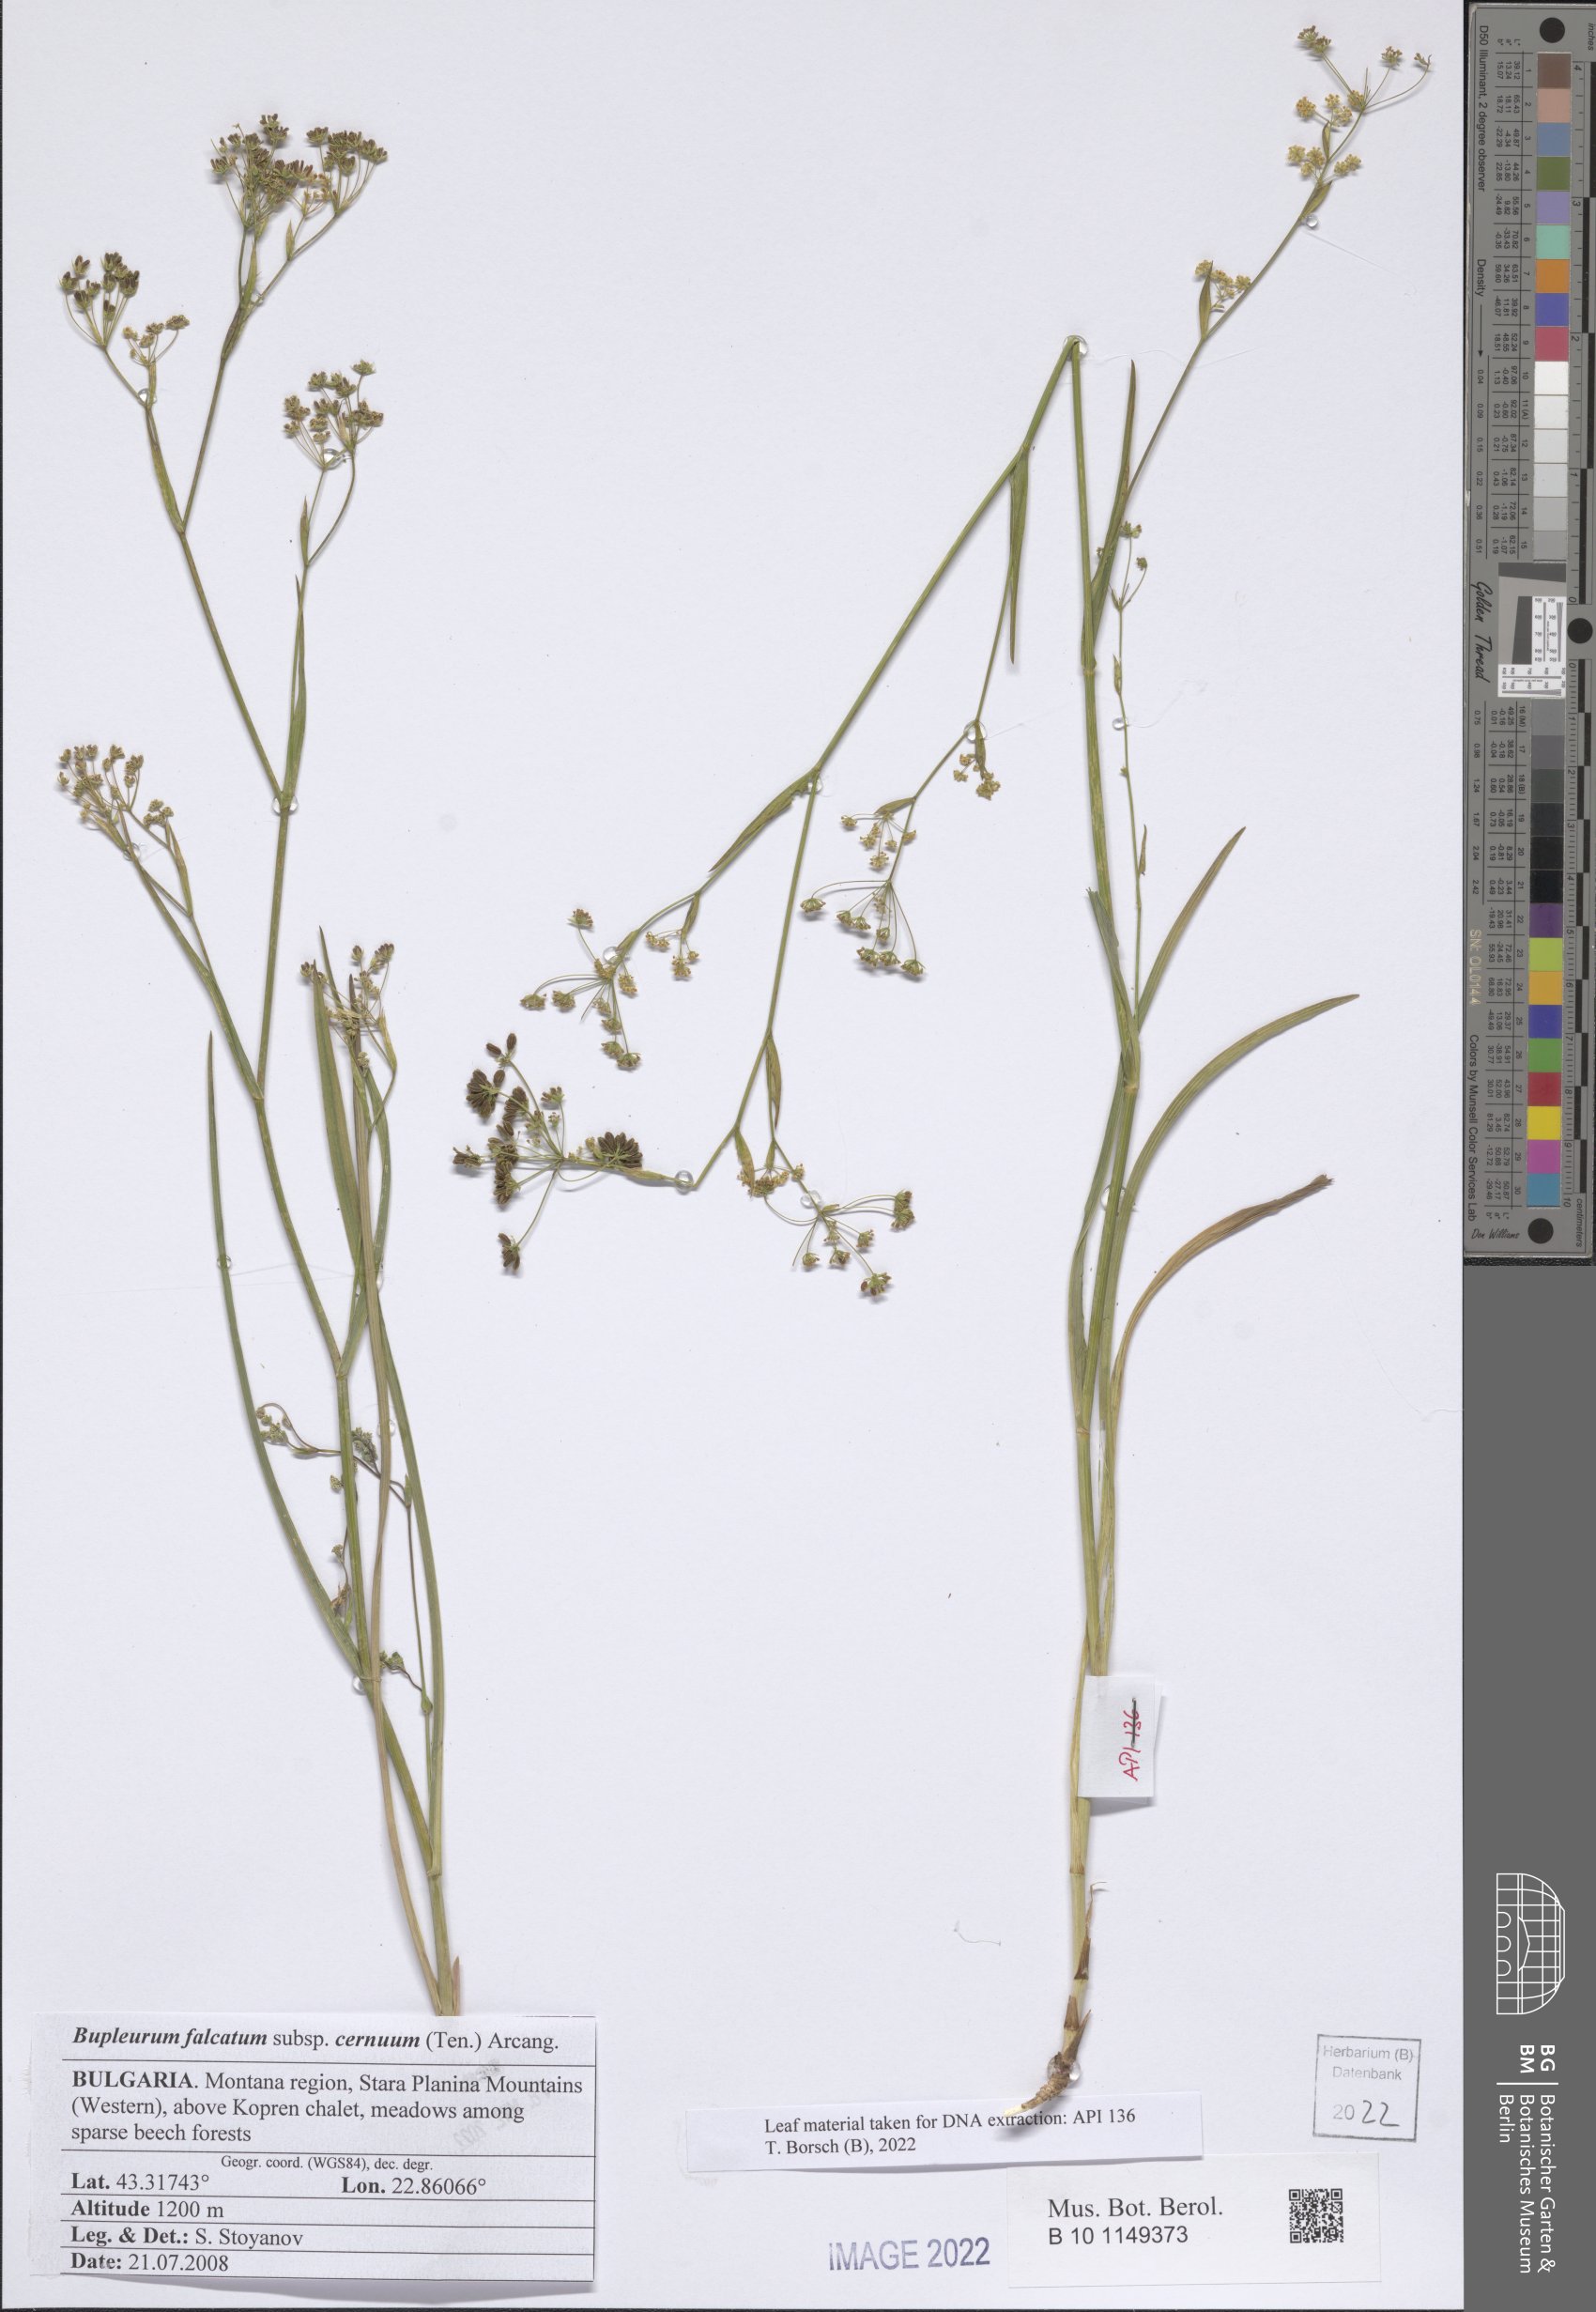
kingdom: Plantae
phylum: Tracheophyta
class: Magnoliopsida
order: Apiales
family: Apiaceae
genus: Bupleurum
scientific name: Bupleurum exaltatum
